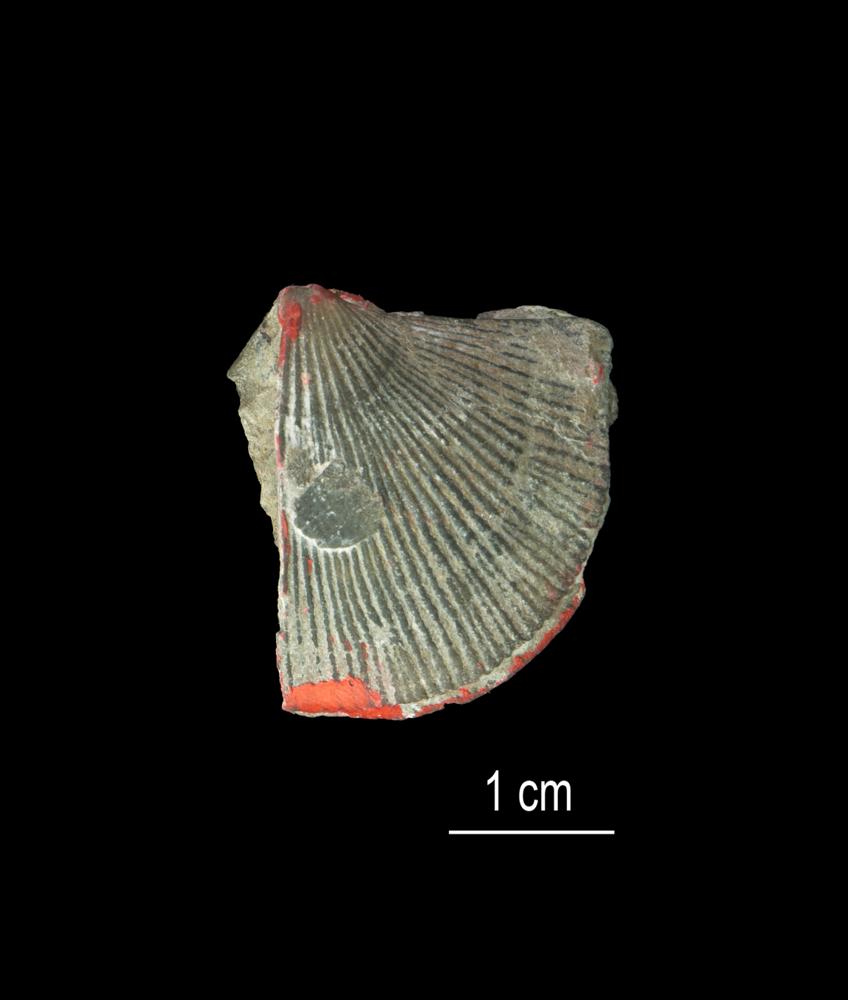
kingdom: Animalia
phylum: Brachiopoda
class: Rhynchonellata
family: Clitambonitidae
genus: Clitambonites
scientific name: Clitambonites squamatus
